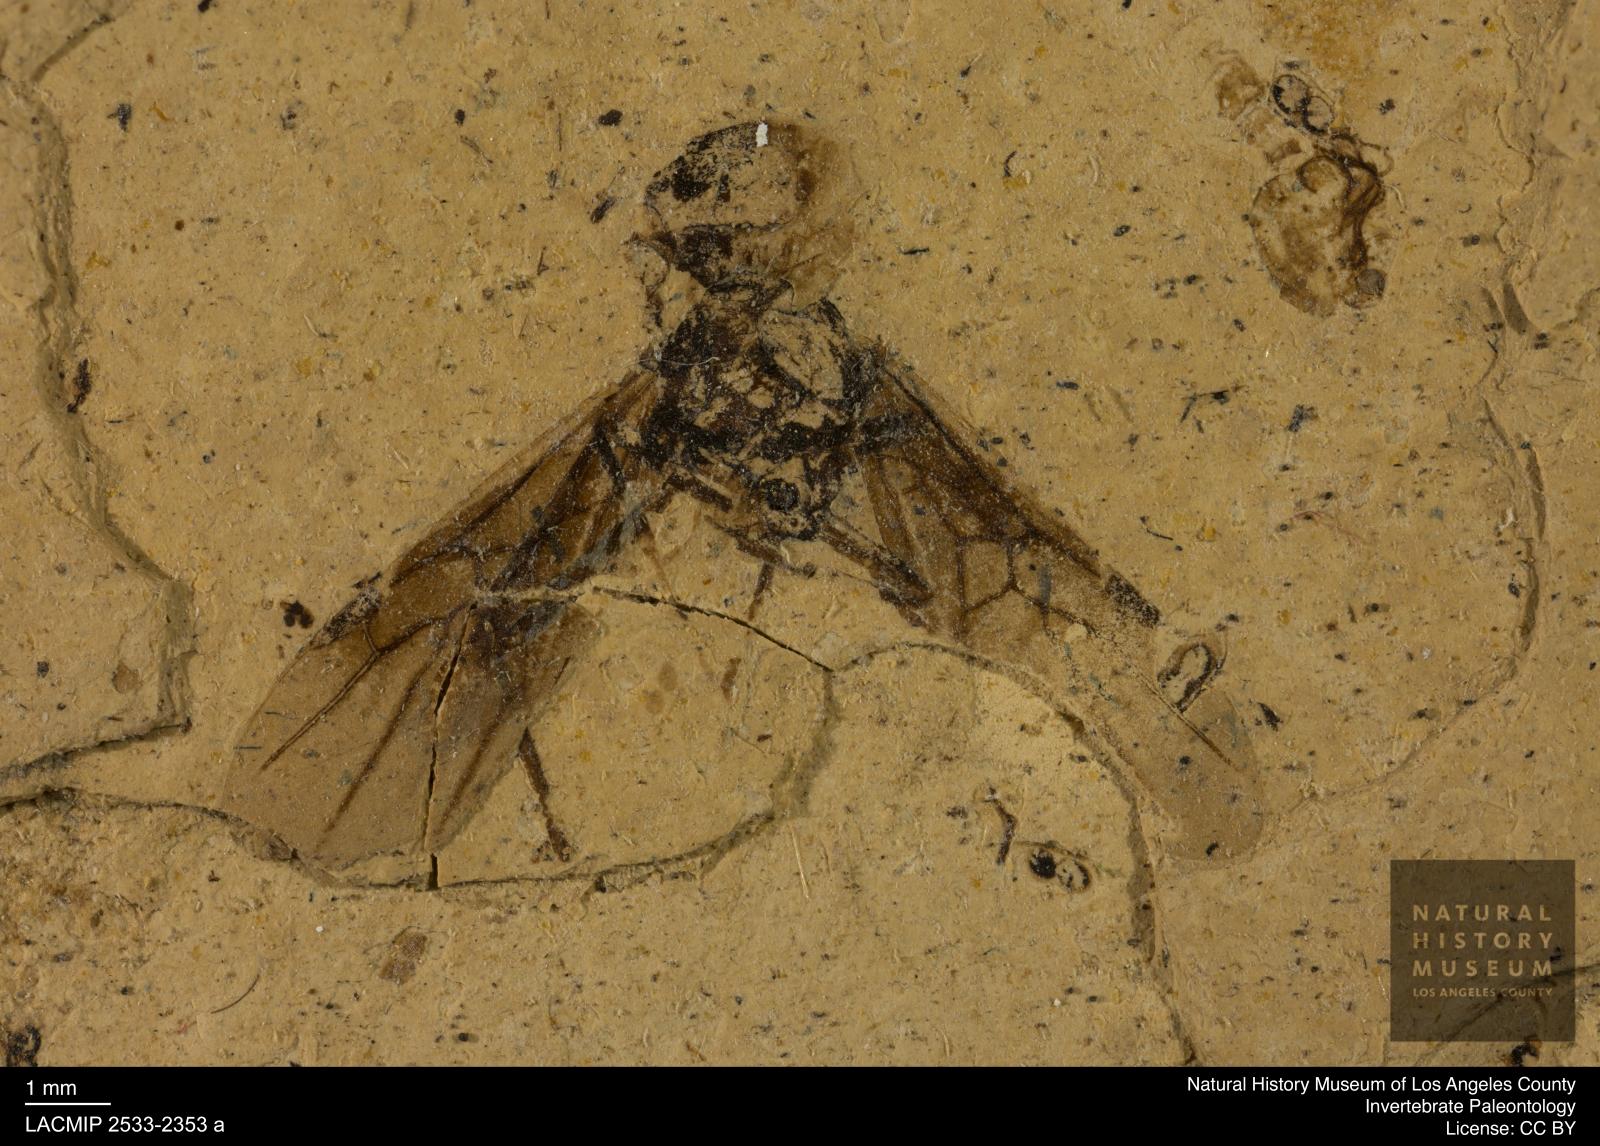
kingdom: Animalia
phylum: Arthropoda
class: Insecta
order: Hymenoptera
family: Formicidae
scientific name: Formicidae
